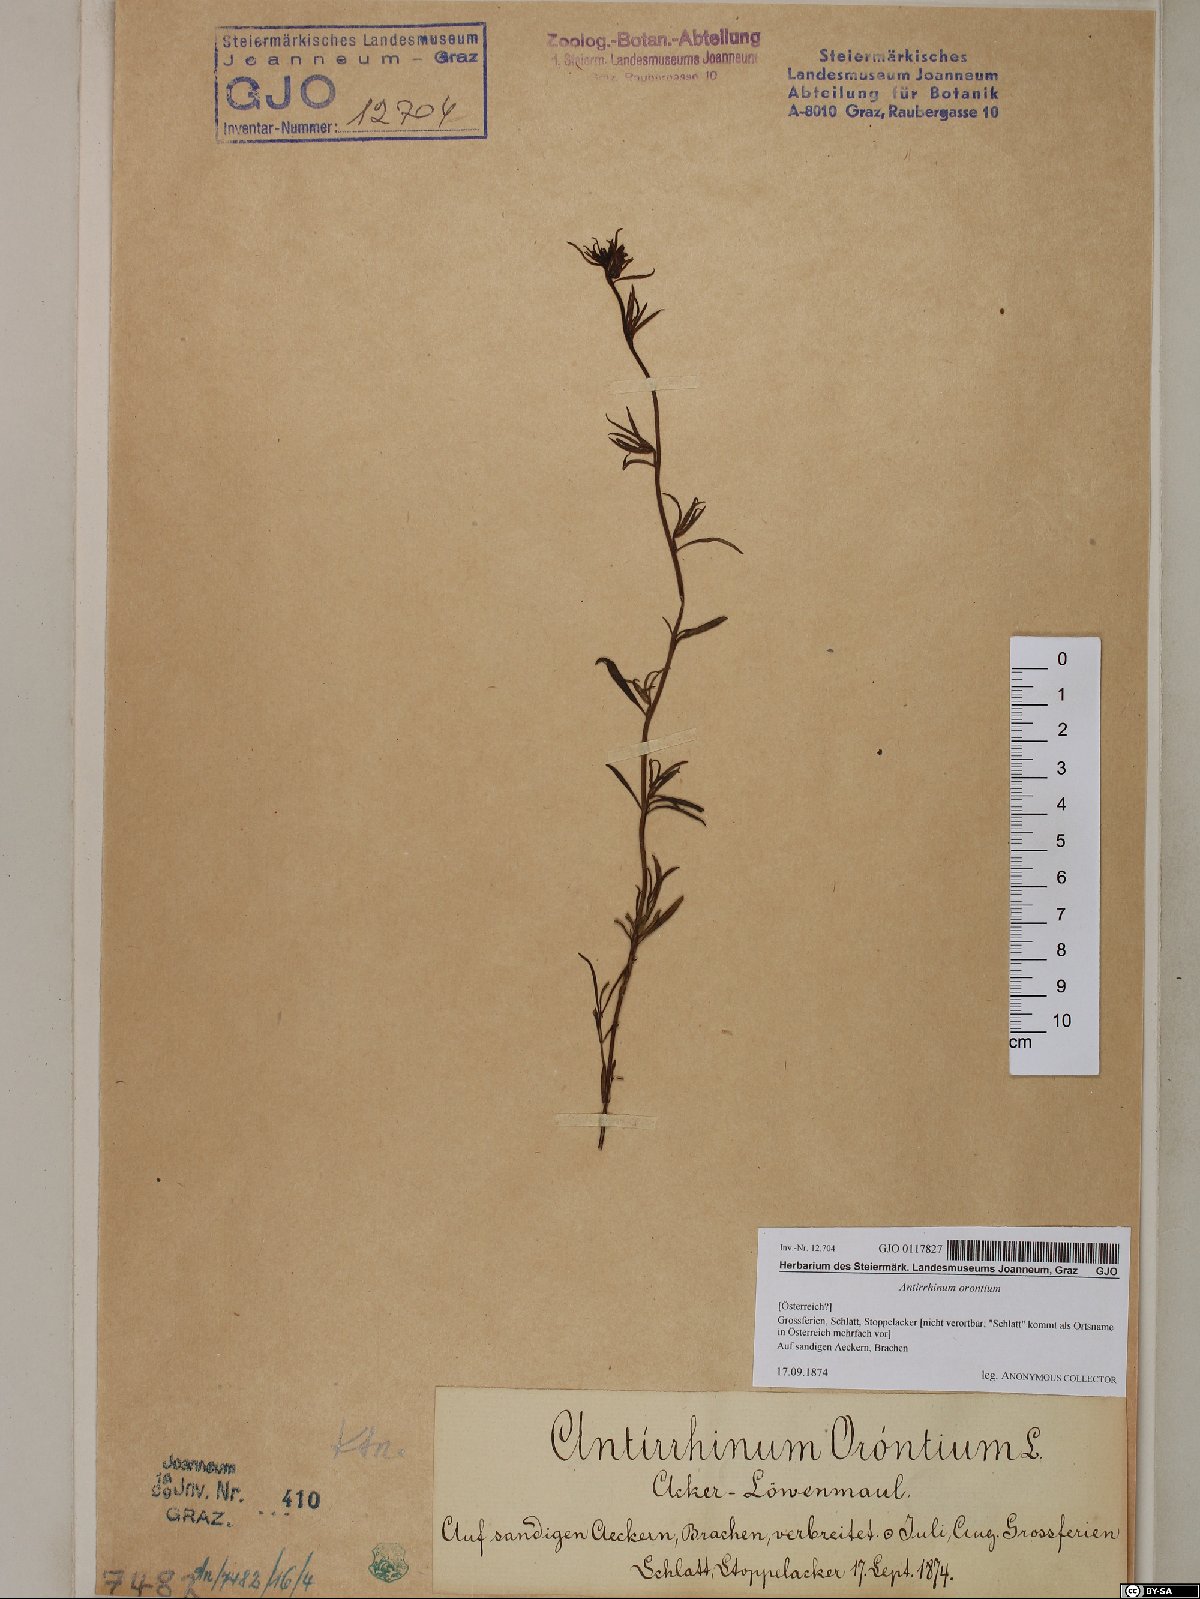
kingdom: Plantae
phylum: Tracheophyta
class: Magnoliopsida
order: Lamiales
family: Plantaginaceae
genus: Misopates
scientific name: Misopates orontium
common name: Weasel's-snout
